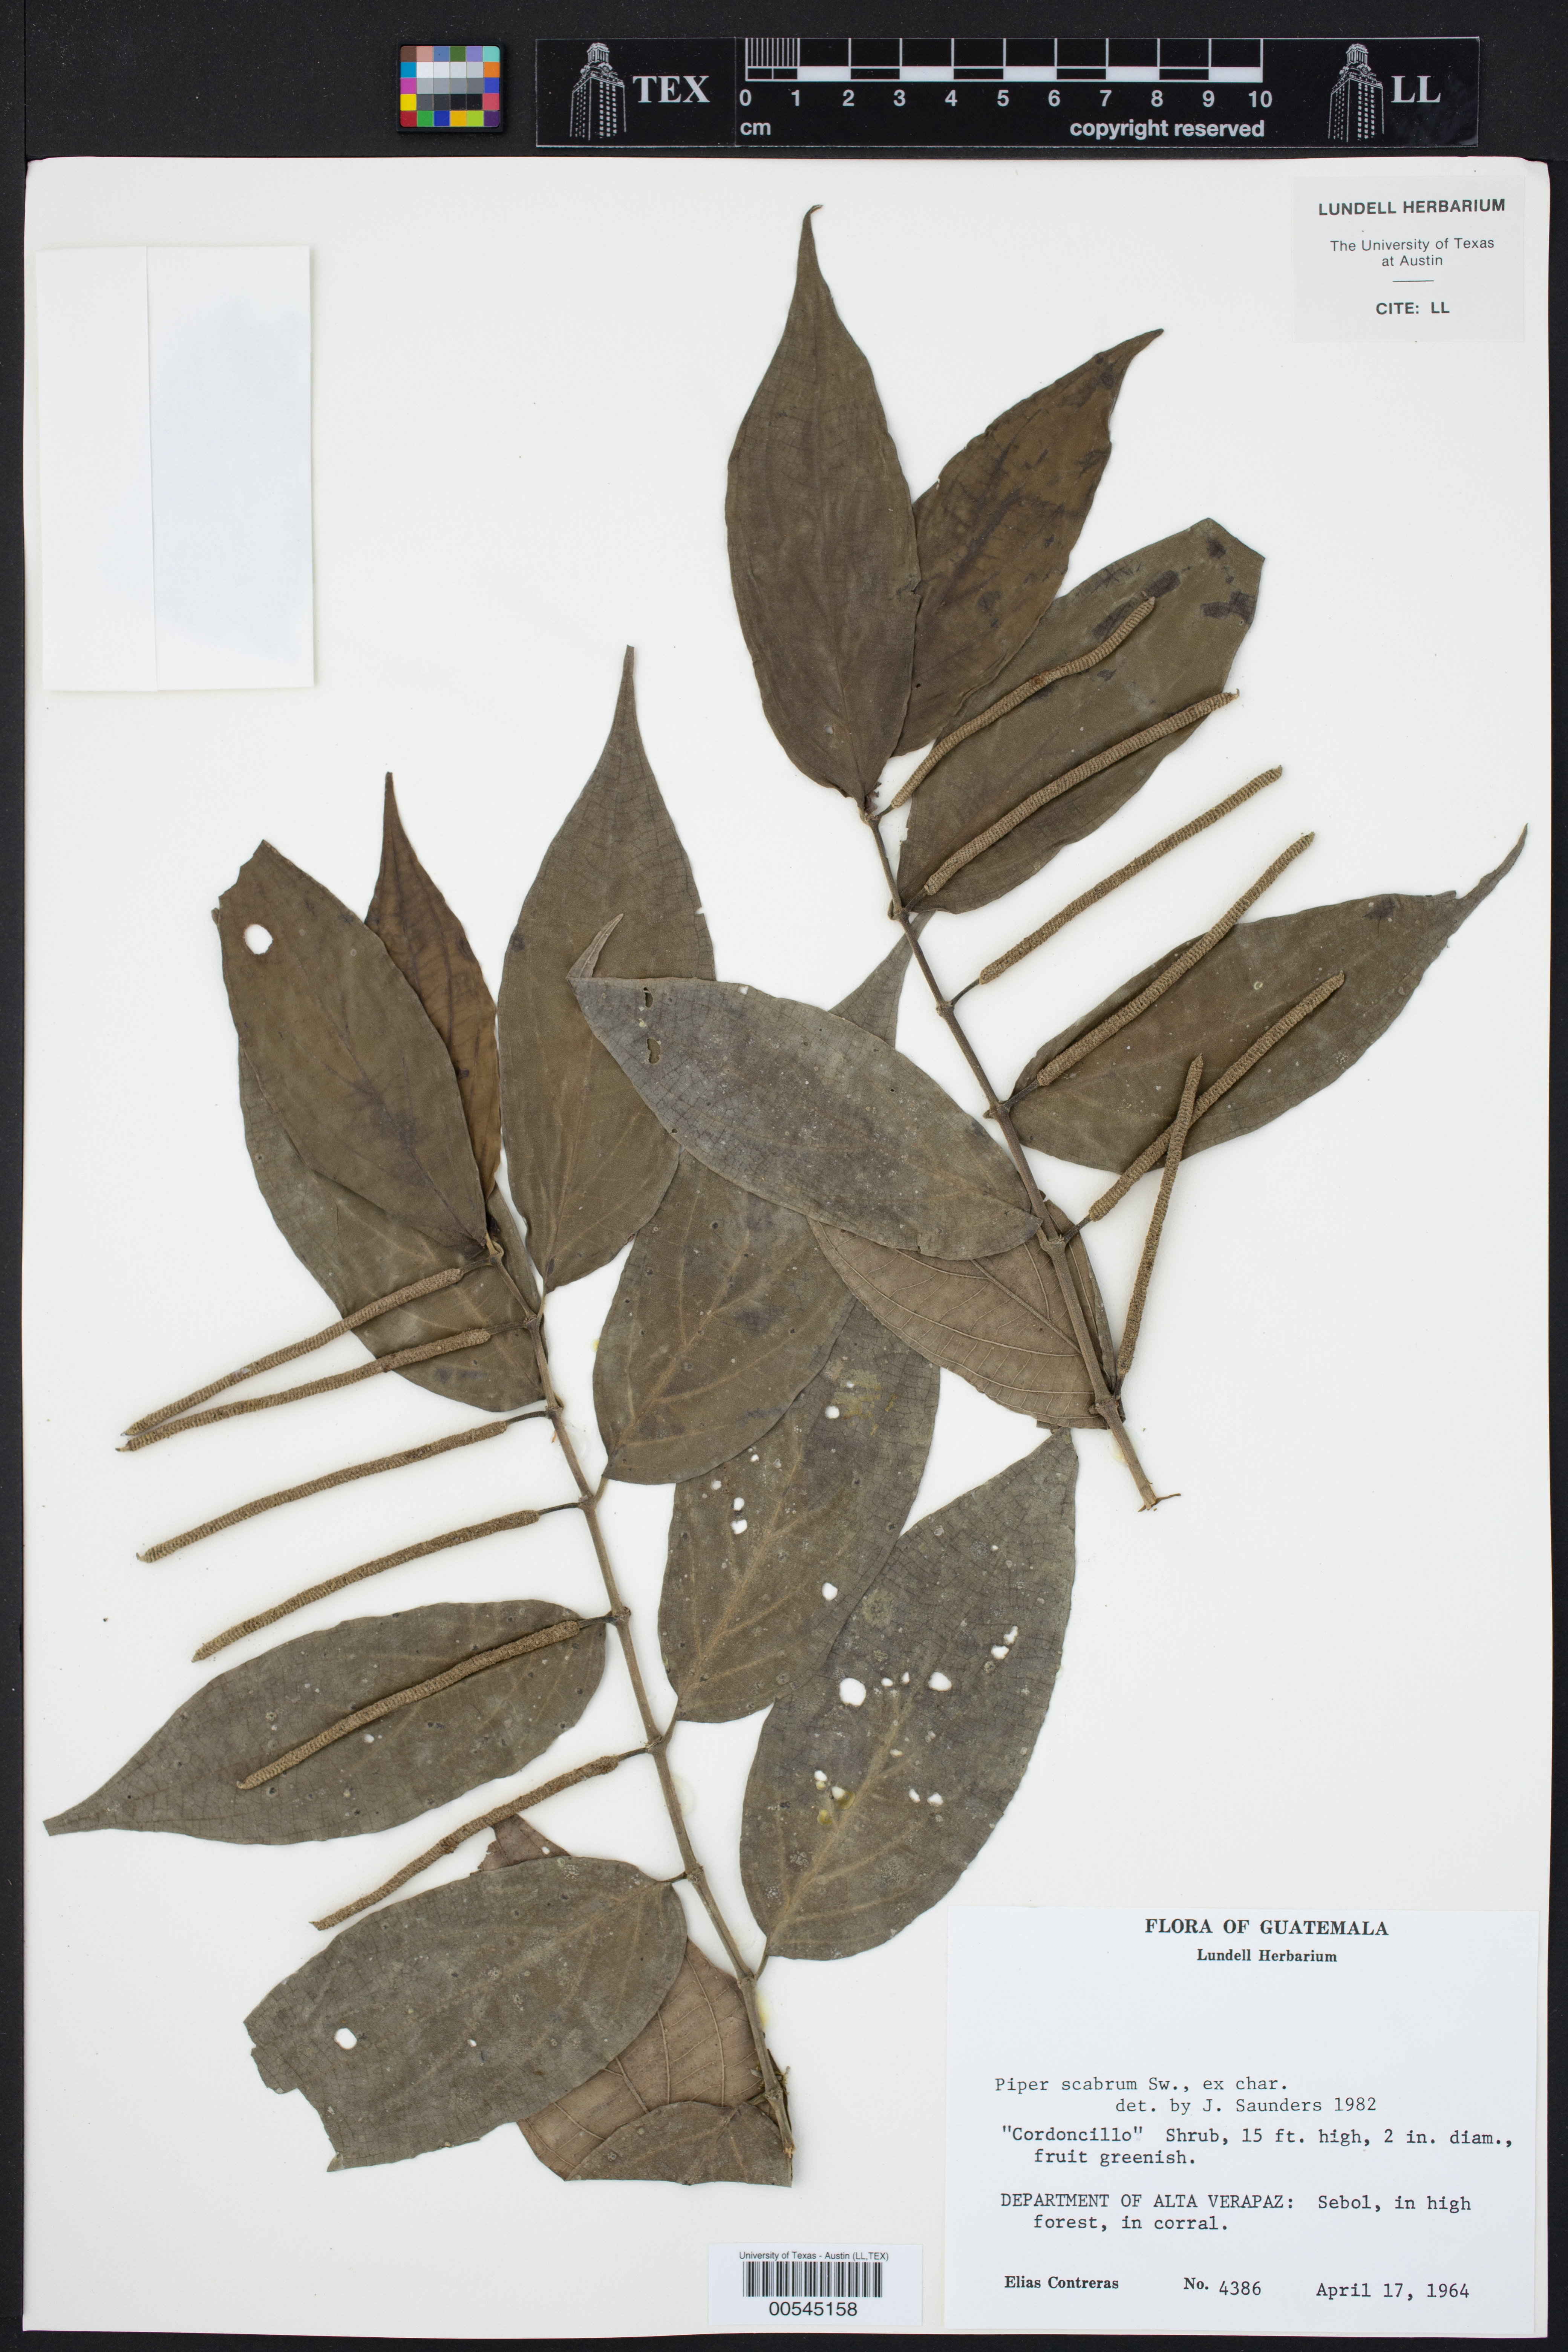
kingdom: Plantae
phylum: Tracheophyta
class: Magnoliopsida
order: Piperales
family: Piperaceae
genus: Piper
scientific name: Piper
